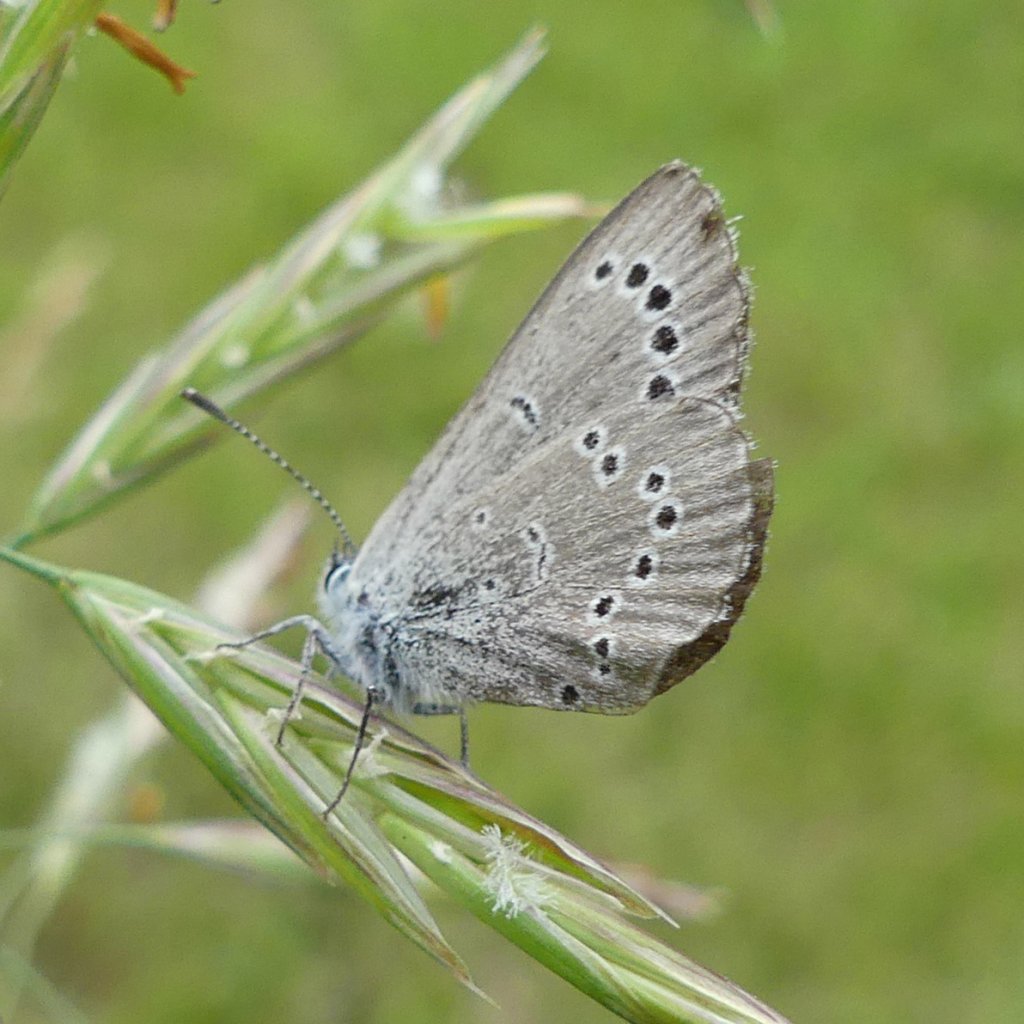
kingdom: Animalia
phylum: Arthropoda
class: Insecta
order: Lepidoptera
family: Lycaenidae
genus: Glaucopsyche
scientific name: Glaucopsyche lygdamus
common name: Silvery Blue
